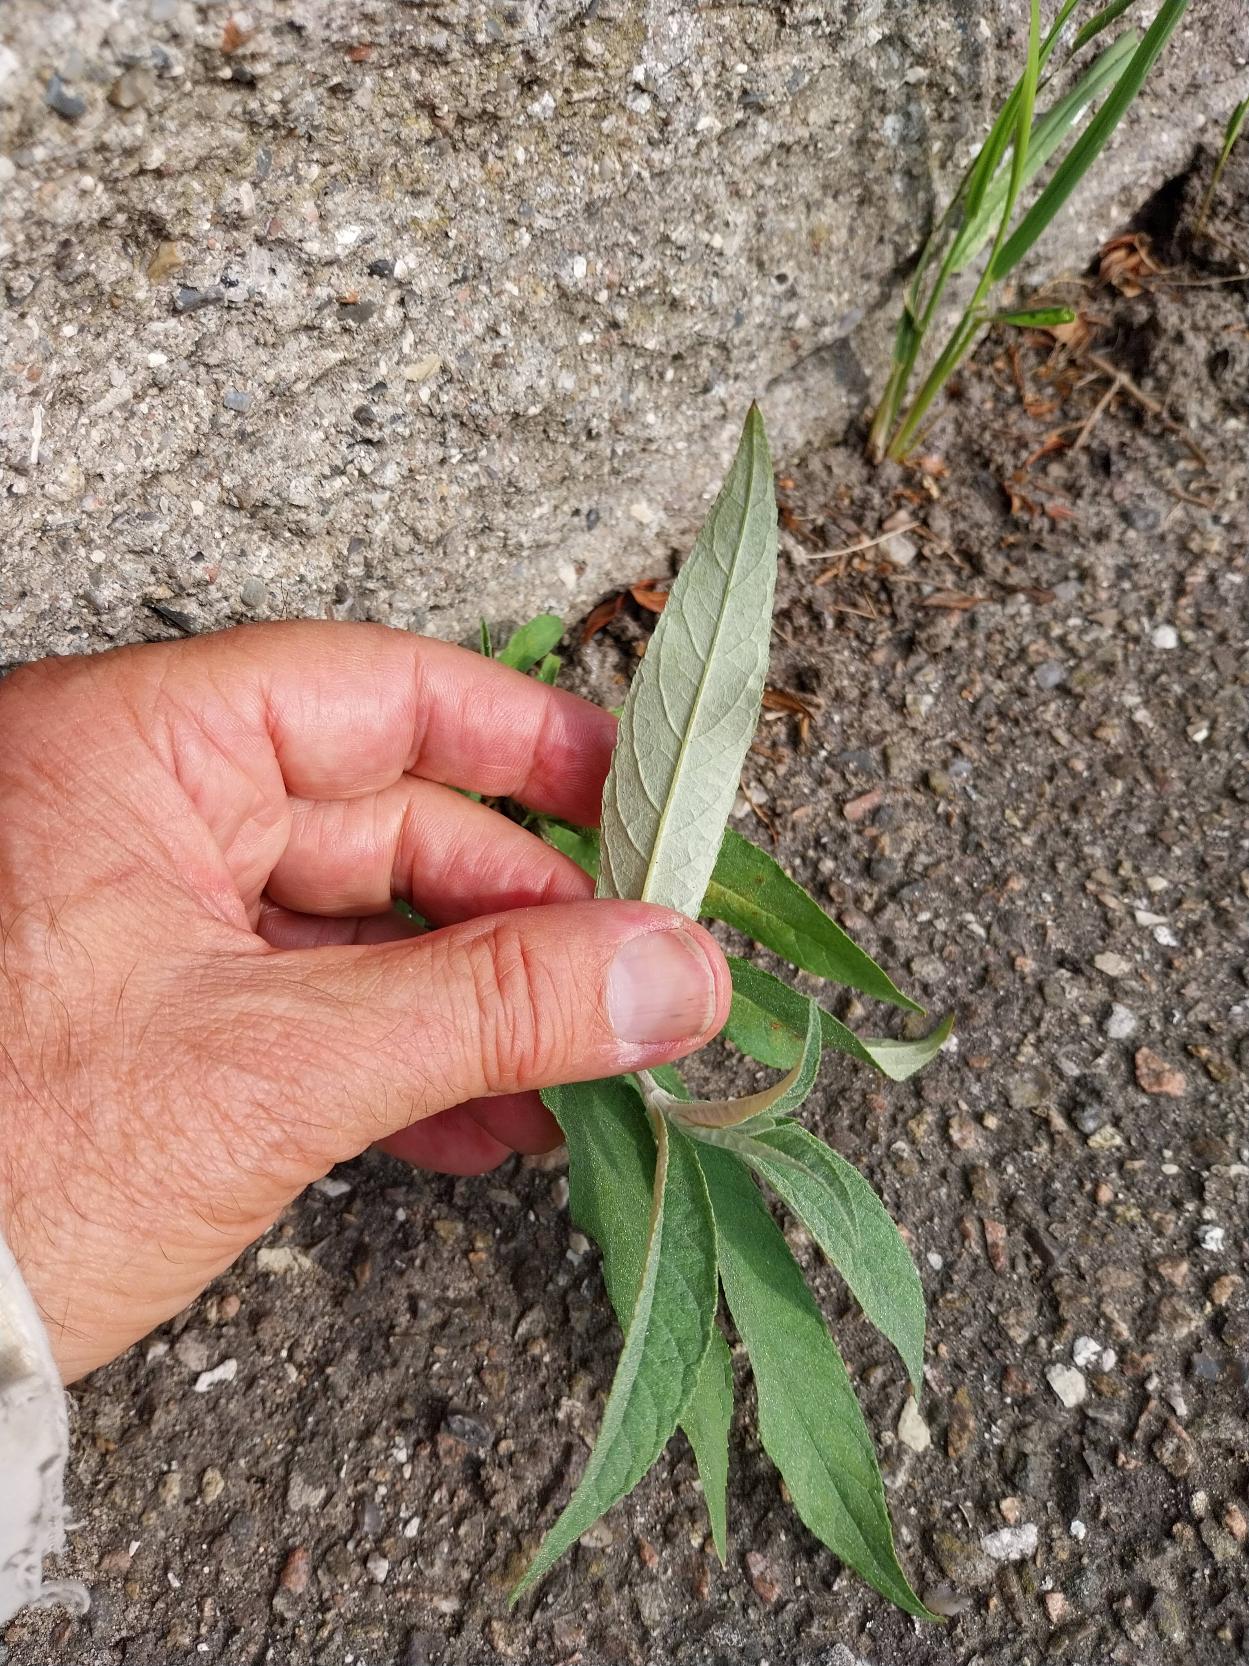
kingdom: Plantae
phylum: Tracheophyta
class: Magnoliopsida
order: Lamiales
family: Scrophulariaceae
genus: Buddleja
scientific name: Buddleja davidii
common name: Sommerfuglebusk
